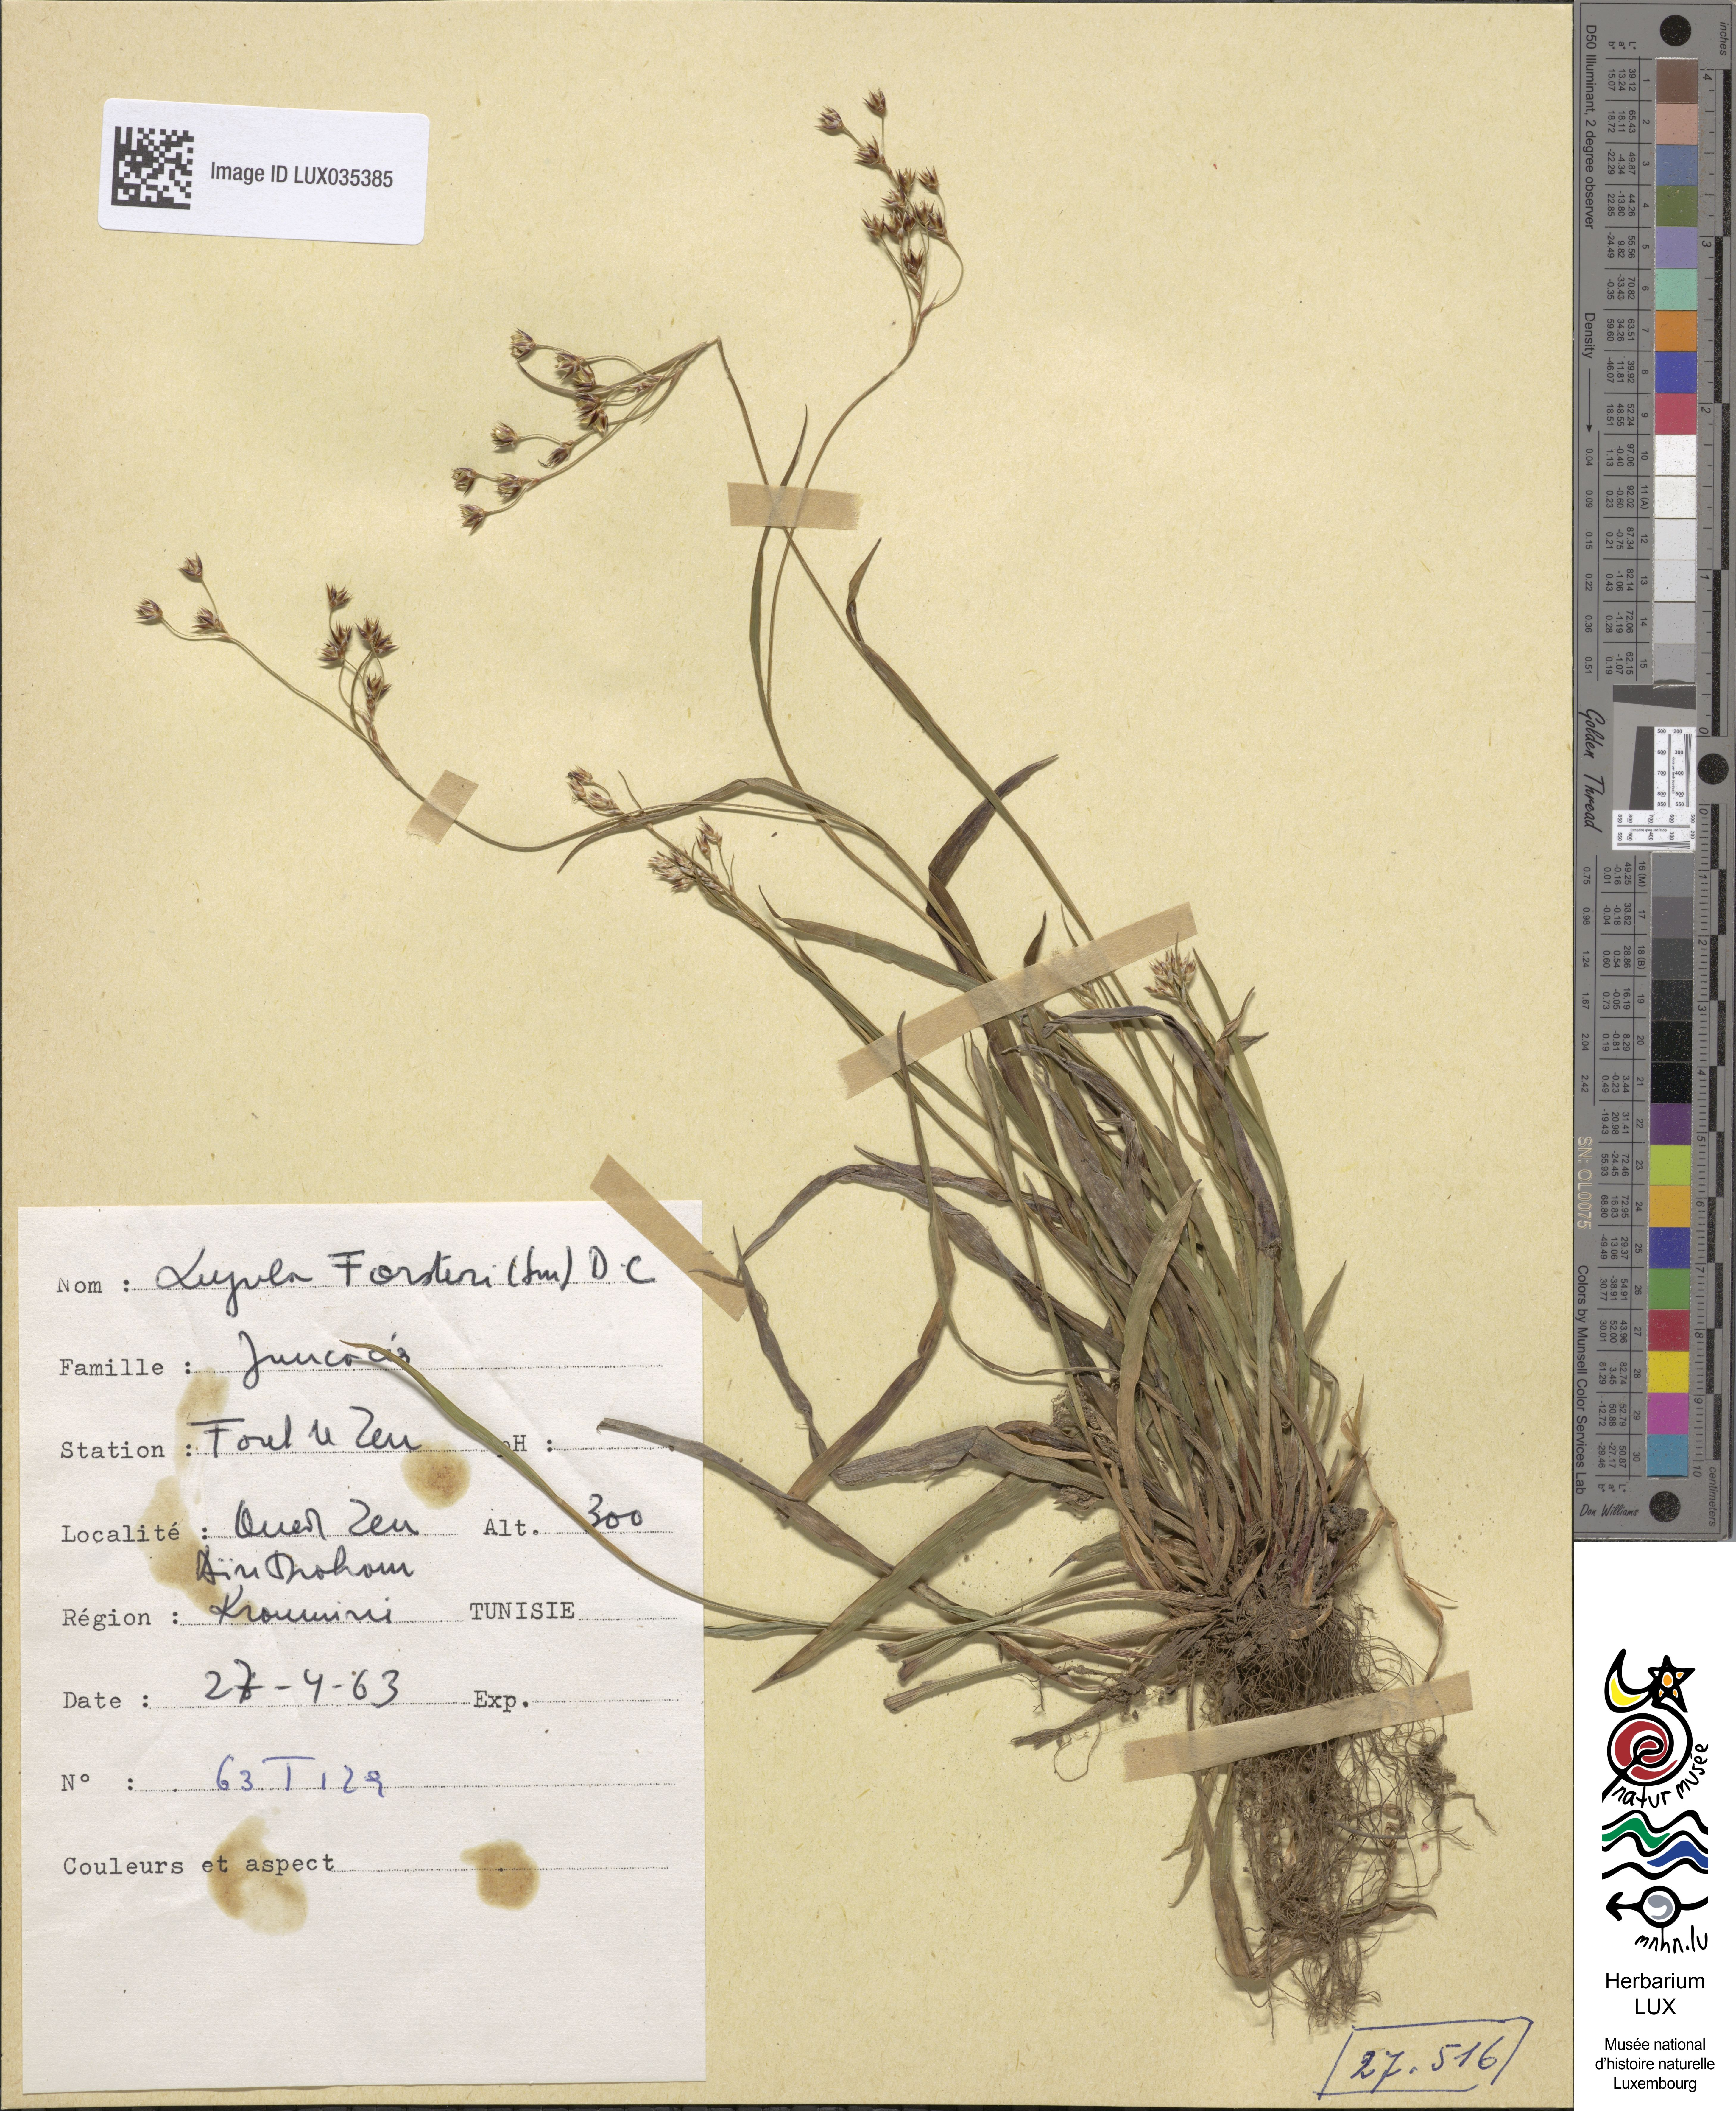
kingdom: Plantae
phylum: Tracheophyta
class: Liliopsida
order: Poales
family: Juncaceae
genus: Luzula
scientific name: Luzula forsteri
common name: Southern wood-rush
